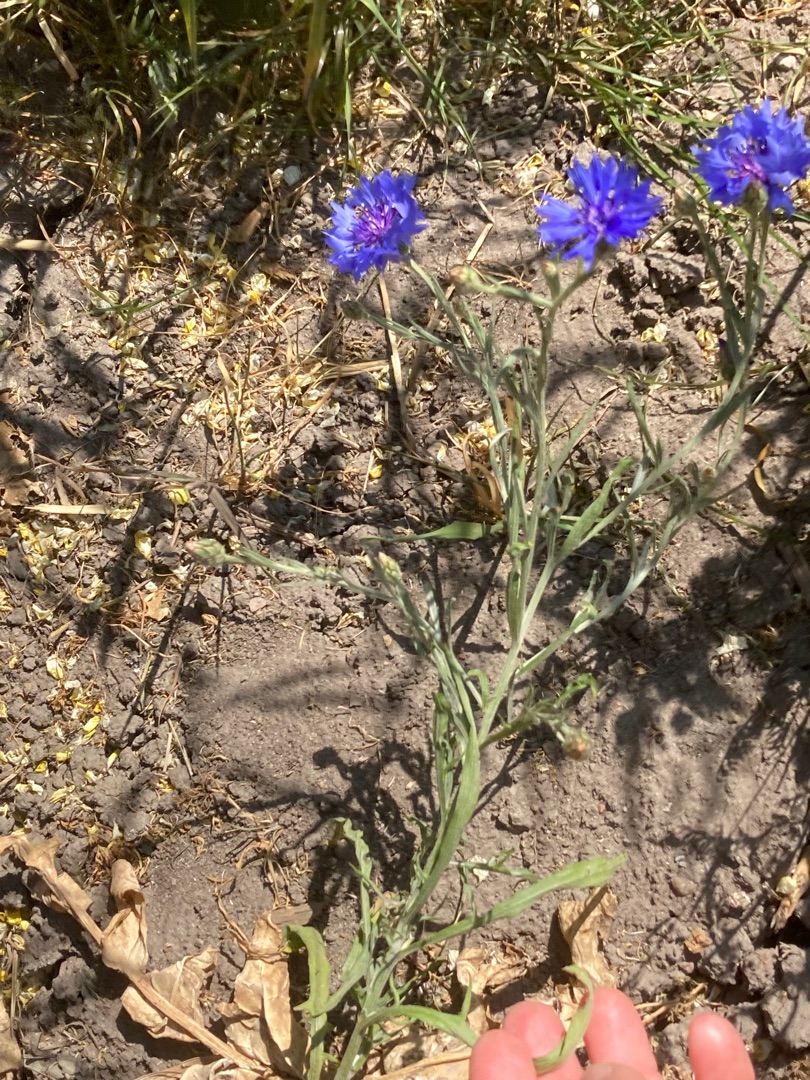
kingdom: Plantae
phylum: Tracheophyta
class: Magnoliopsida
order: Asterales
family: Asteraceae
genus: Centaurea
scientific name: Centaurea cyanus
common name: Kornblomst
